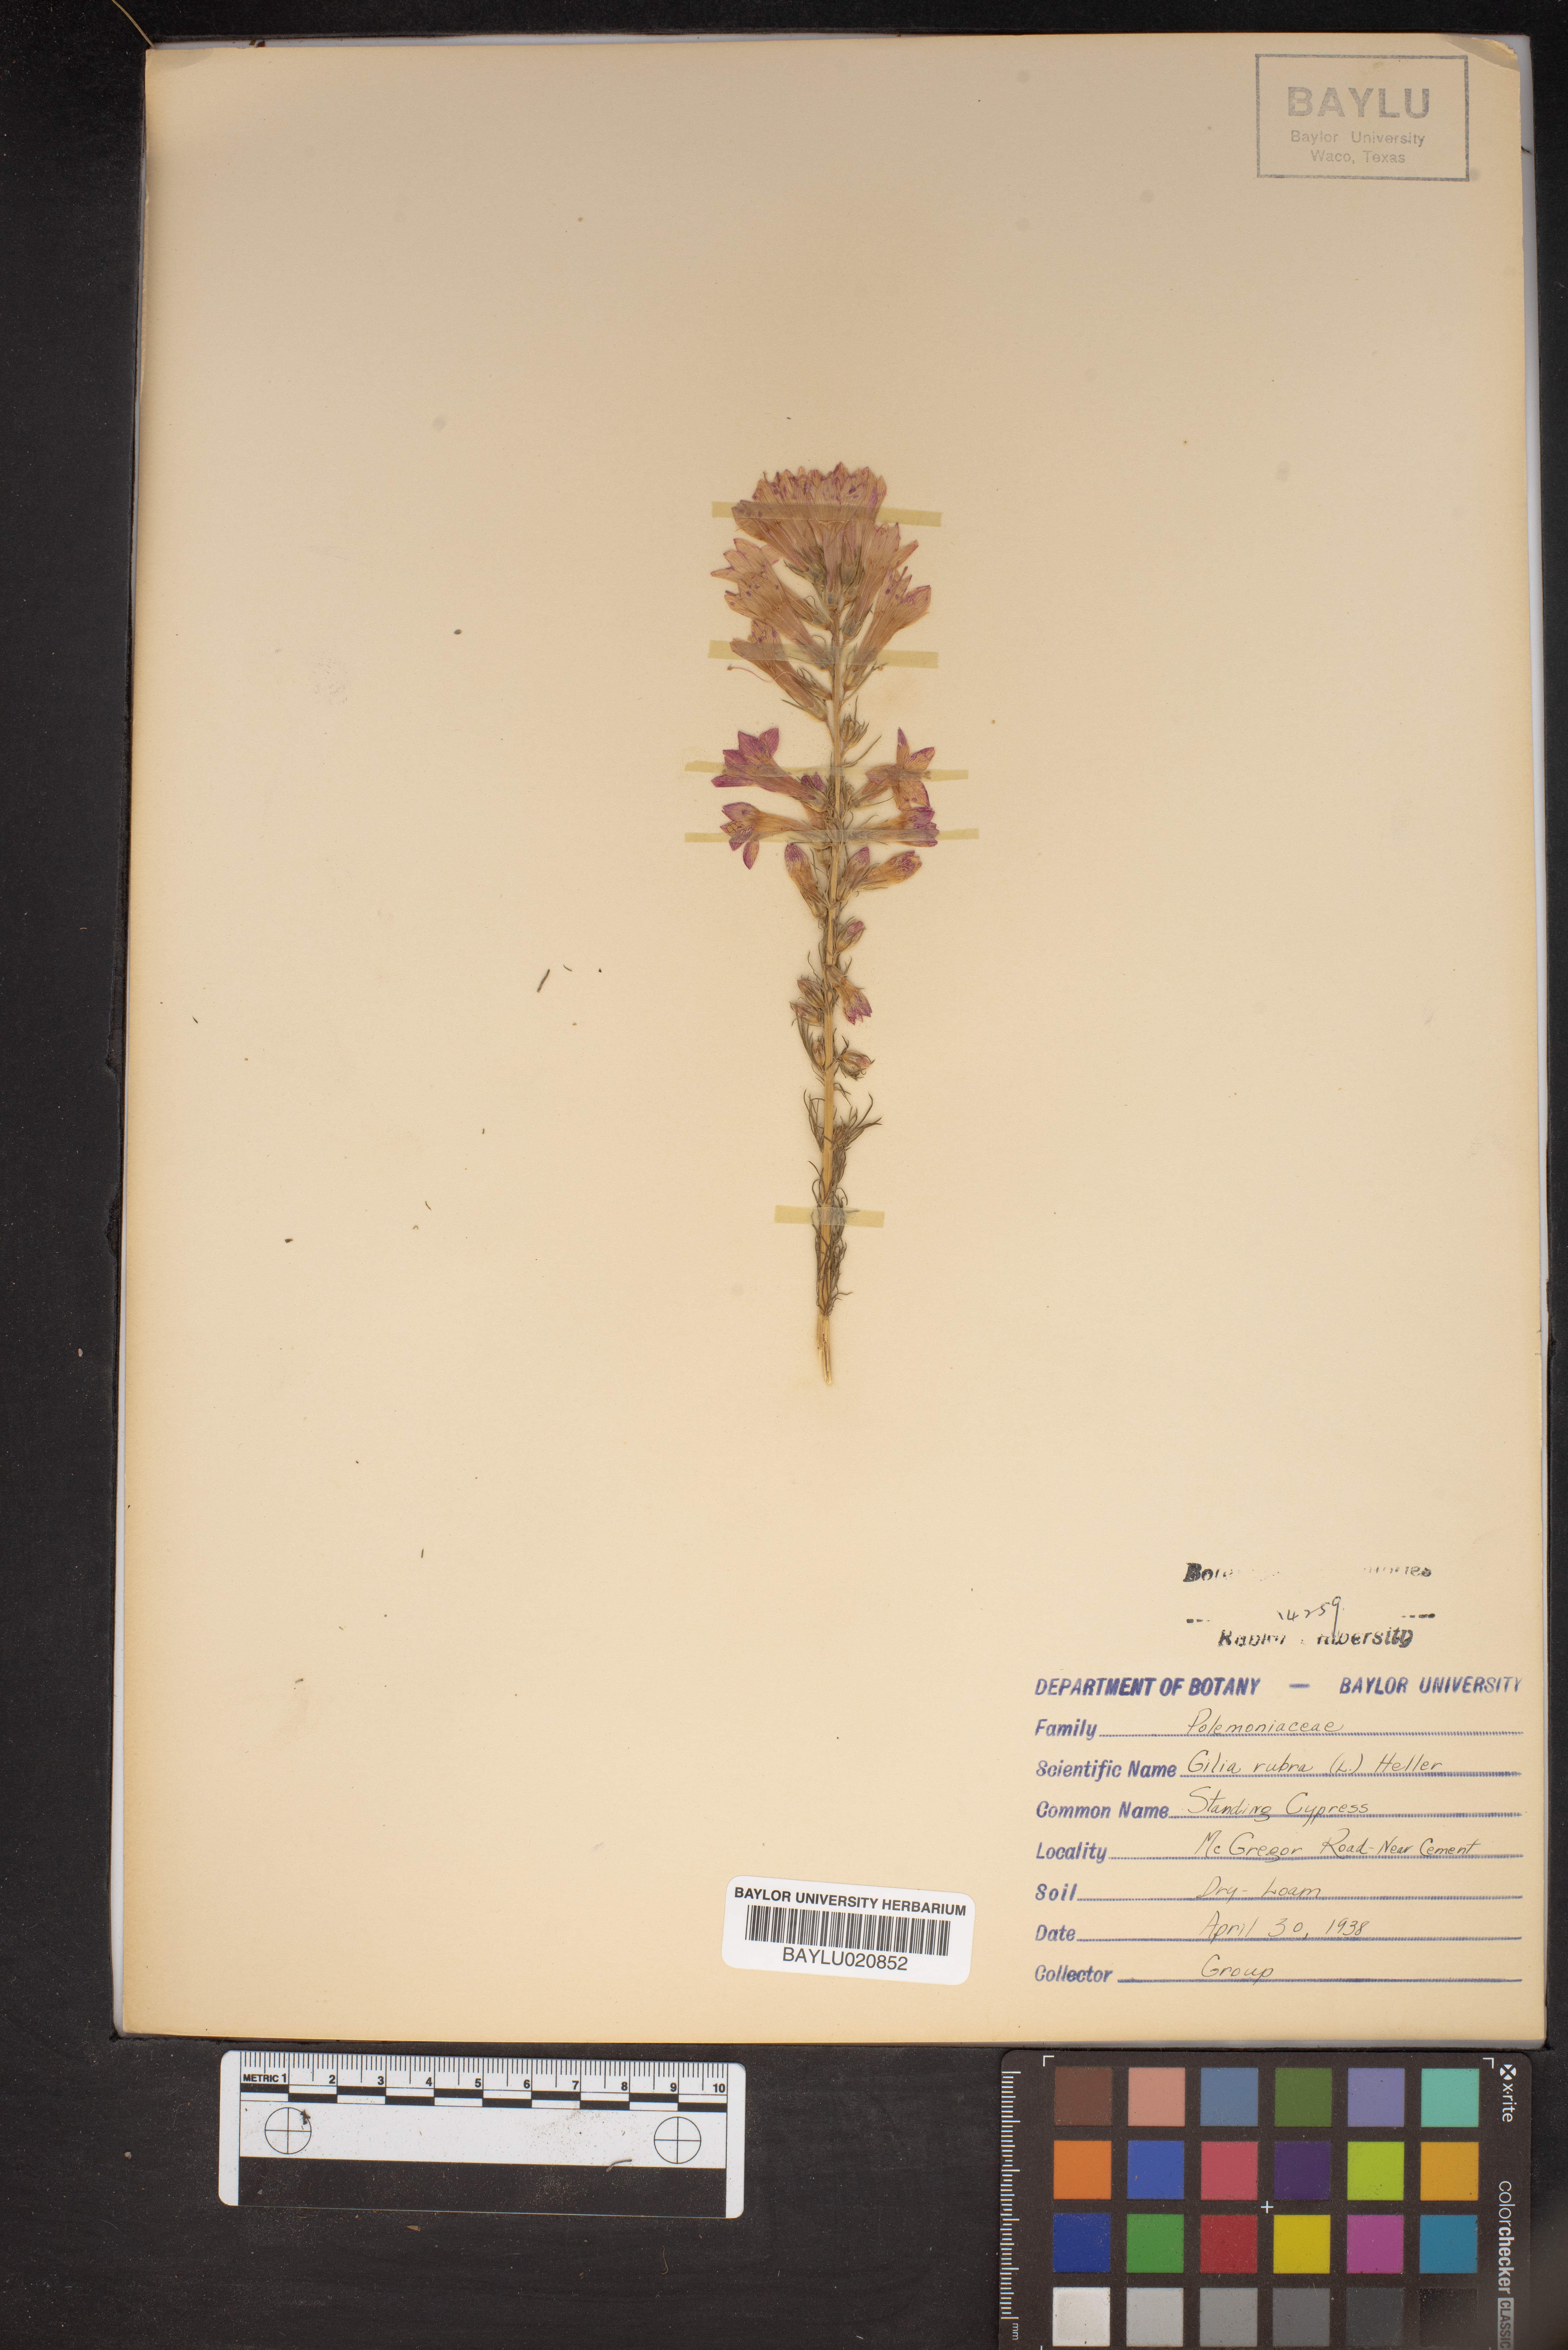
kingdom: Plantae
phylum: Tracheophyta
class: Magnoliopsida
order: Ericales
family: Polemoniaceae
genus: Ipomopsis
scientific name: Ipomopsis rubra
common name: Skyrocket
